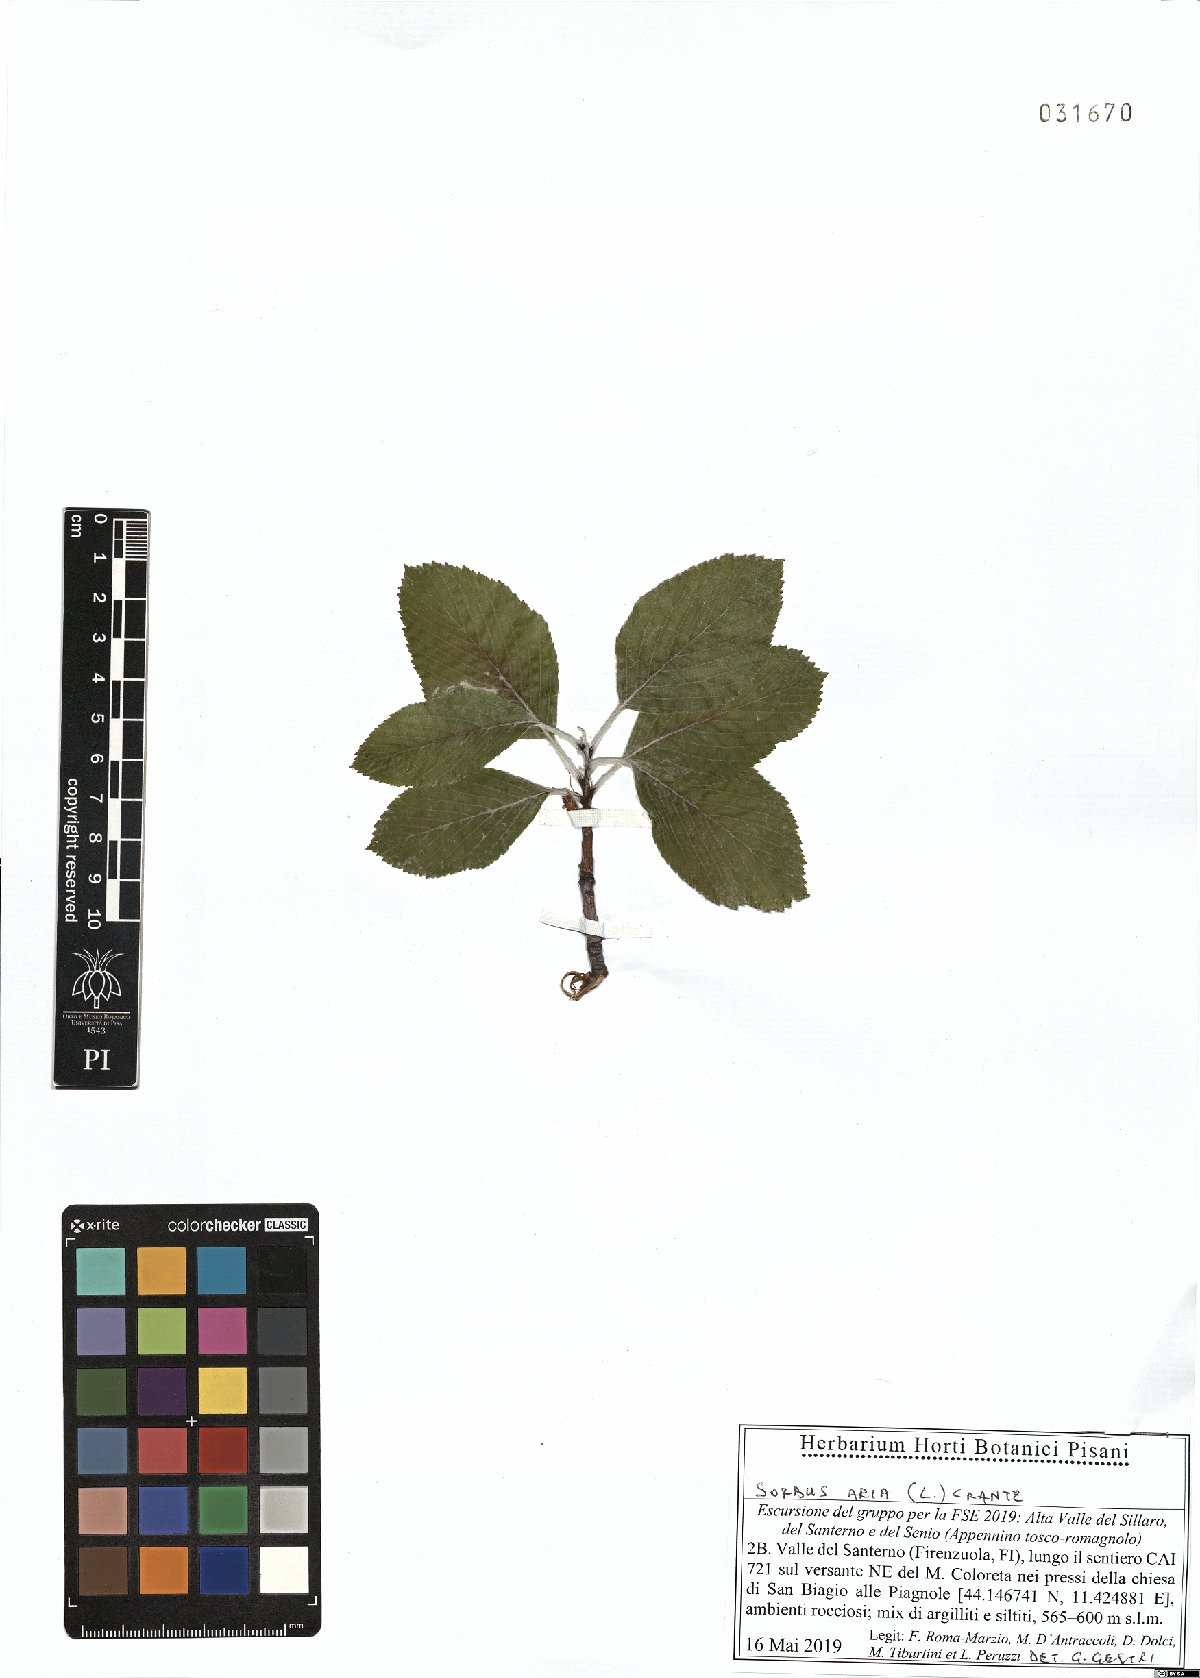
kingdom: Plantae
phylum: Tracheophyta
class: Magnoliopsida
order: Rosales
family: Rosaceae
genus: Aria
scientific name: Aria edulis
